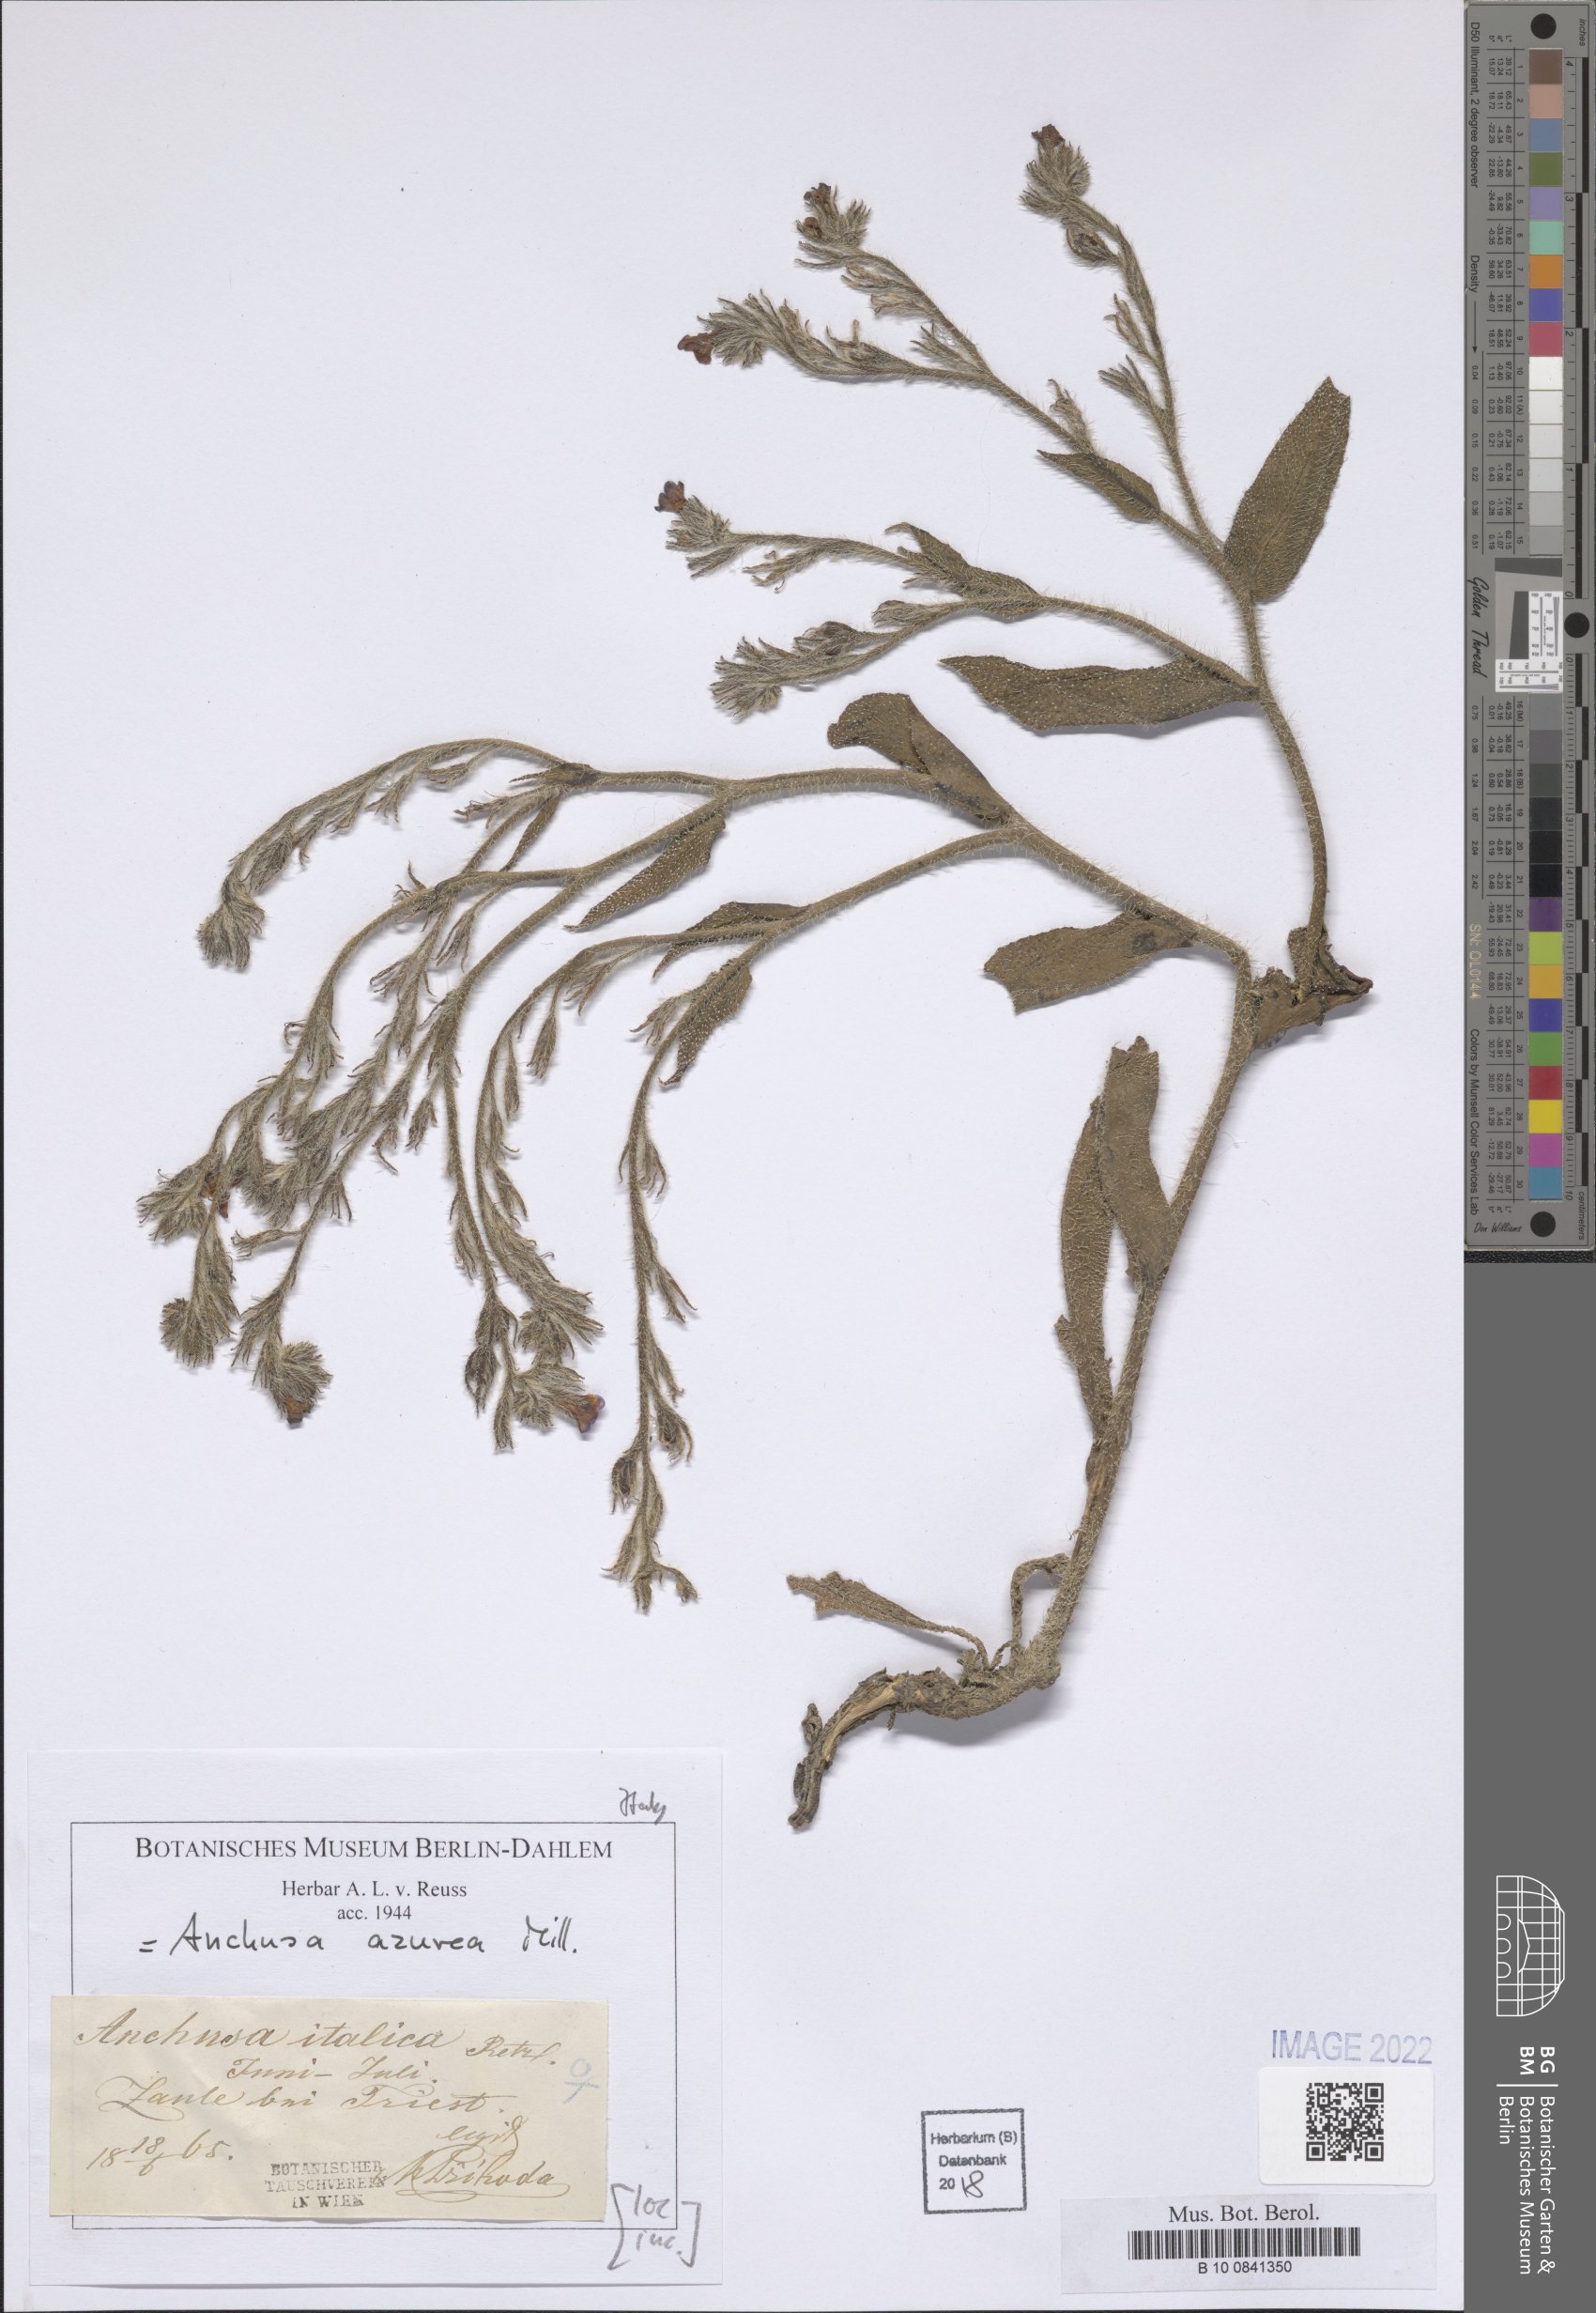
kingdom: Plantae
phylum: Tracheophyta
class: Magnoliopsida
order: Boraginales
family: Boraginaceae
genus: Anchusa
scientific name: Anchusa azurea
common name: Garden anchusa
